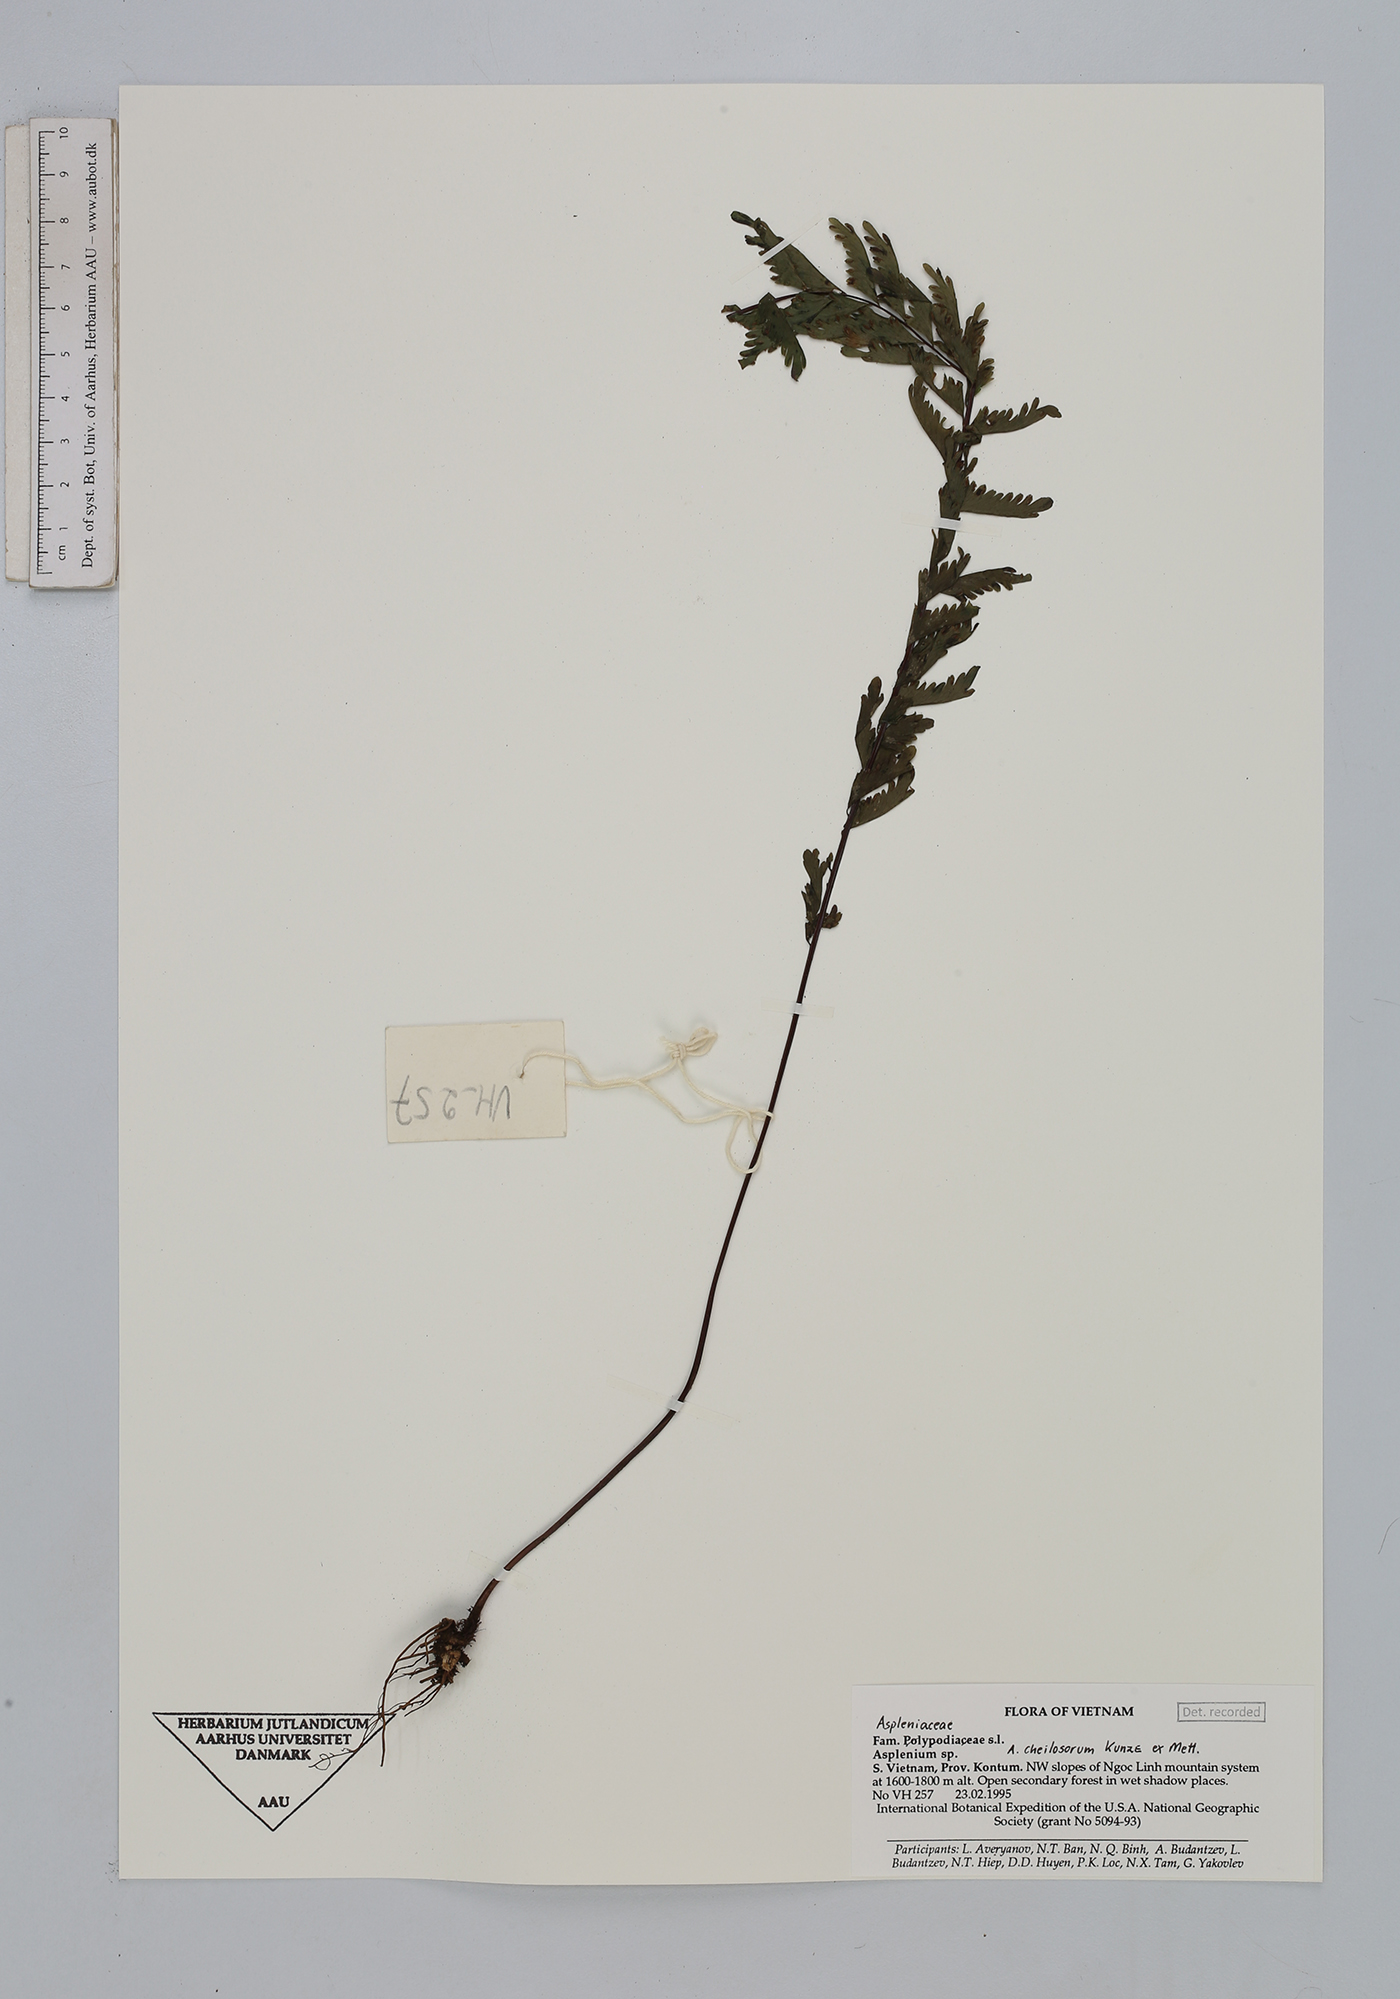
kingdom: Plantae
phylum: Tracheophyta
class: Polypodiopsida
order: Polypodiales
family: Aspleniaceae
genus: Hymenasplenium
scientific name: Hymenasplenium cheilosorum
